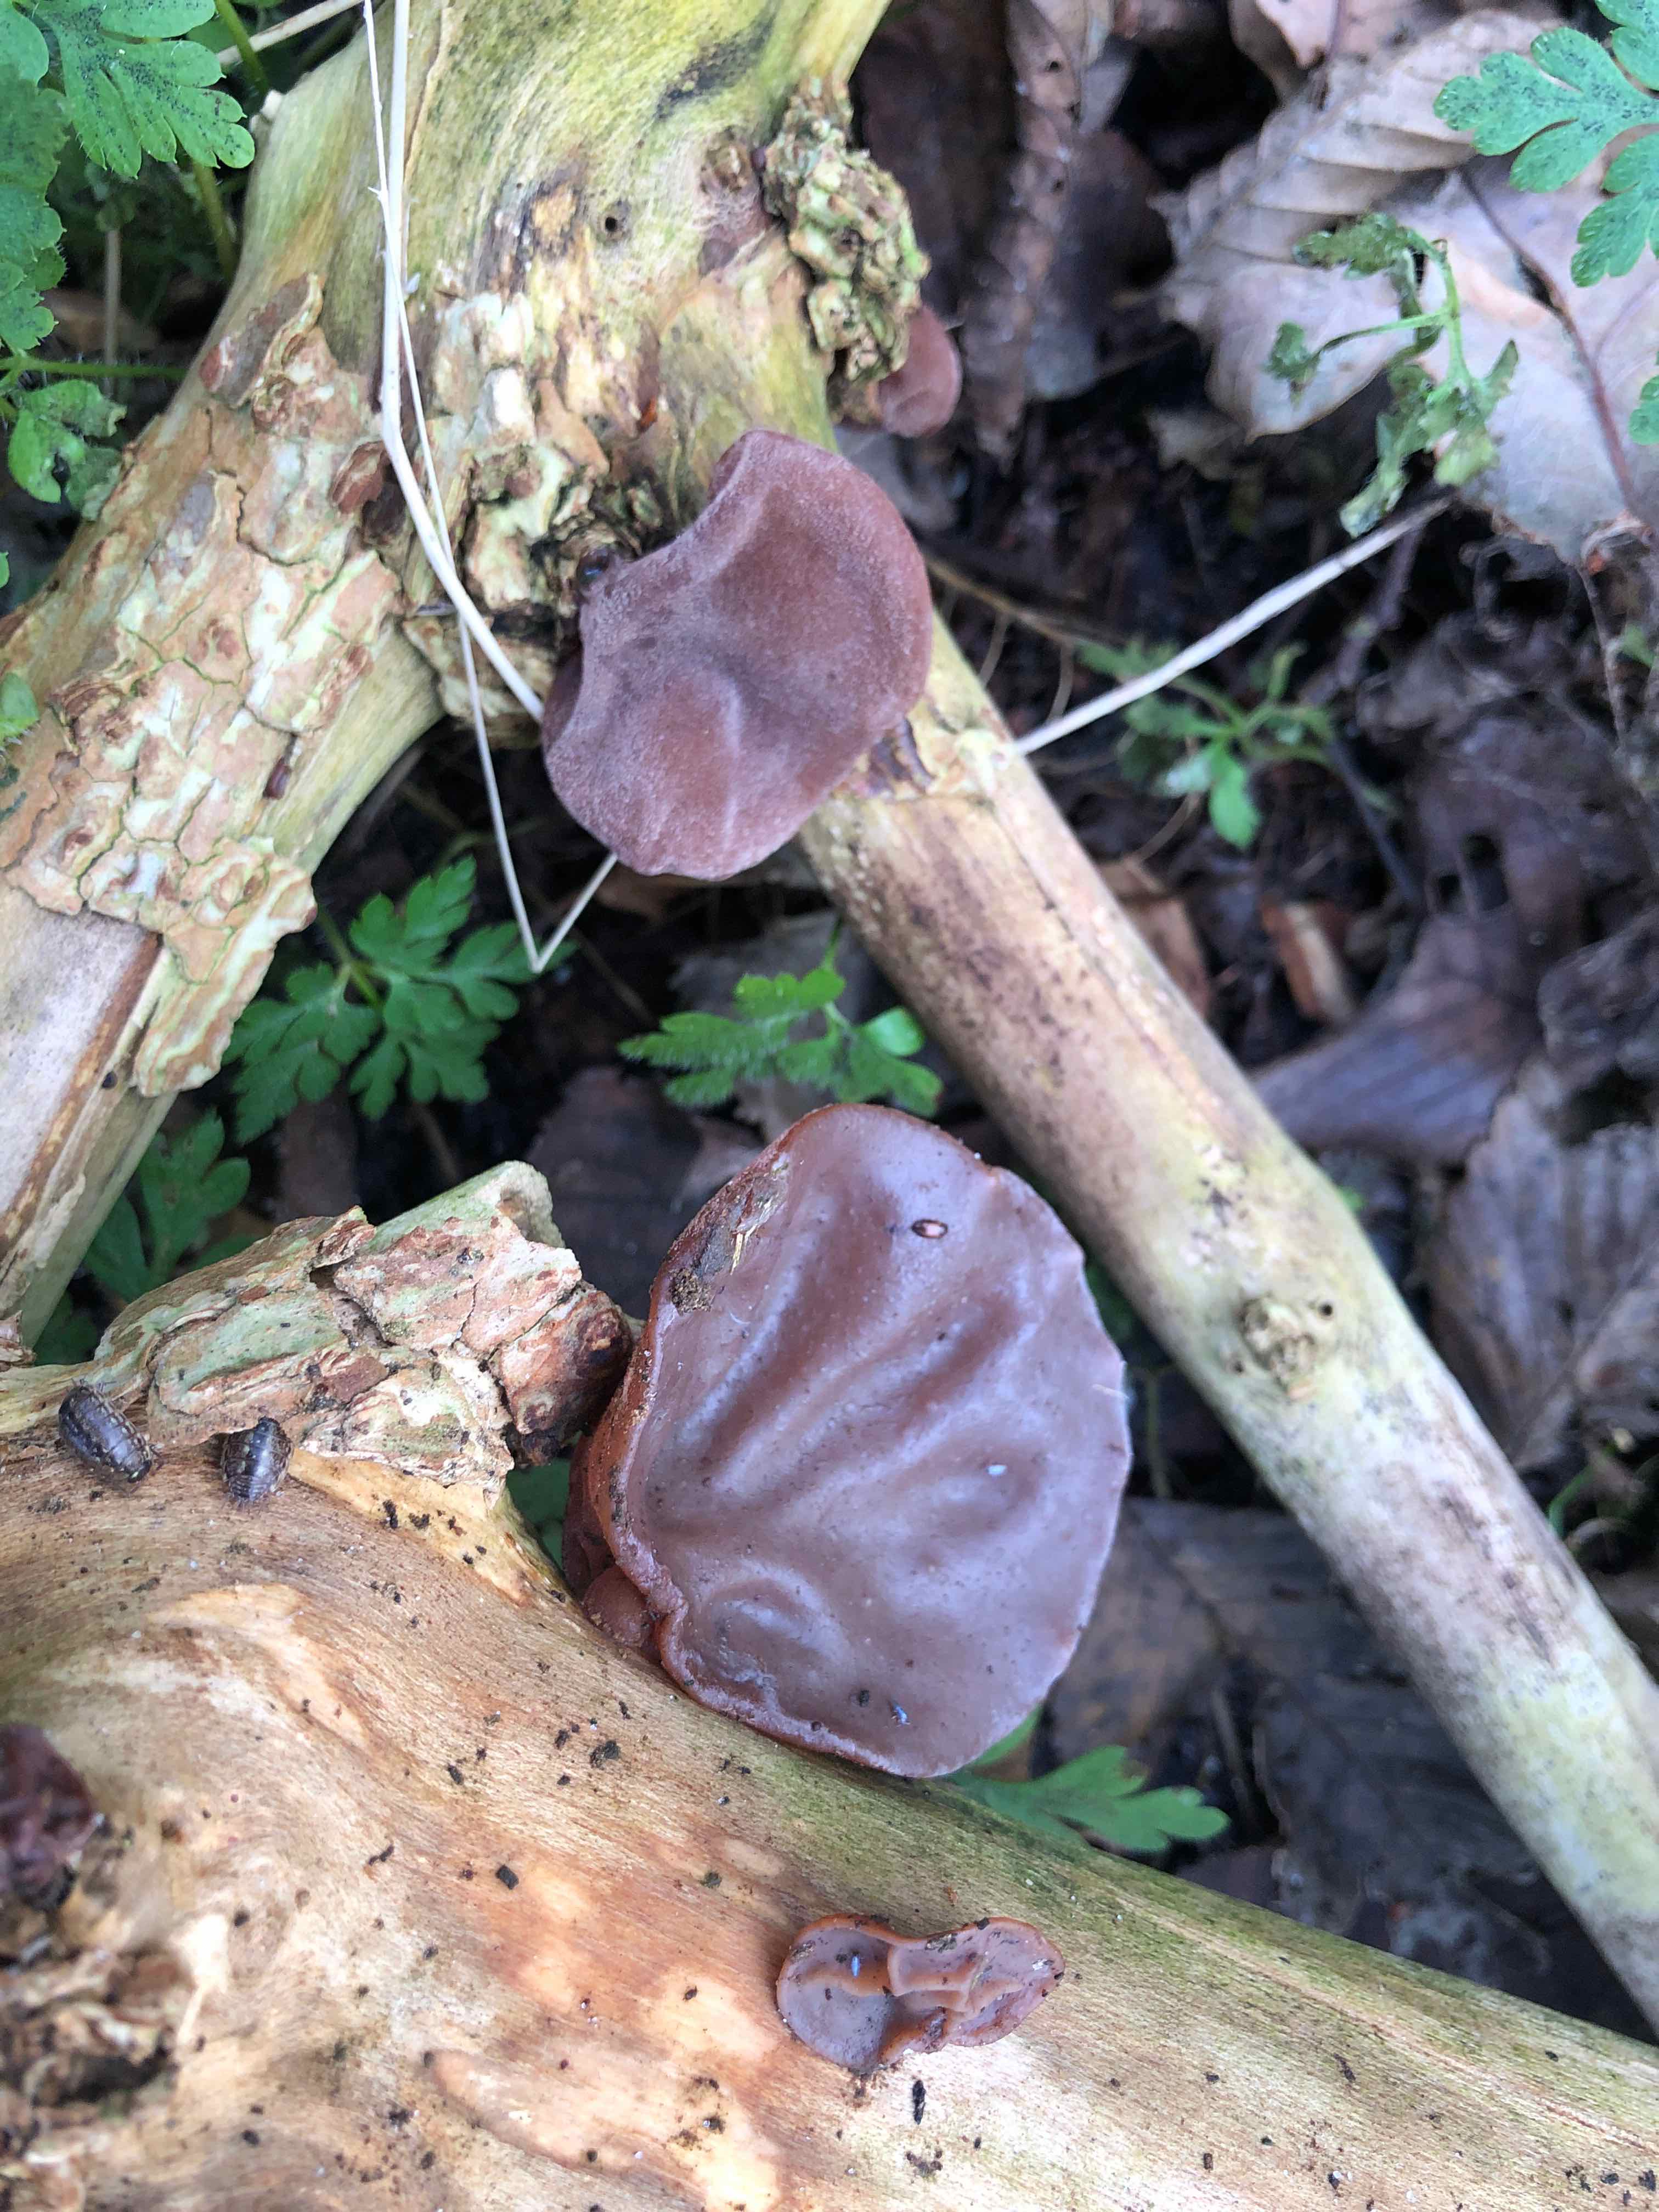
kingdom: Fungi
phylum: Basidiomycota
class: Agaricomycetes
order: Auriculariales
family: Auriculariaceae
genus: Auricularia
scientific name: Auricularia auricula-judae
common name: almindelig judasøre
